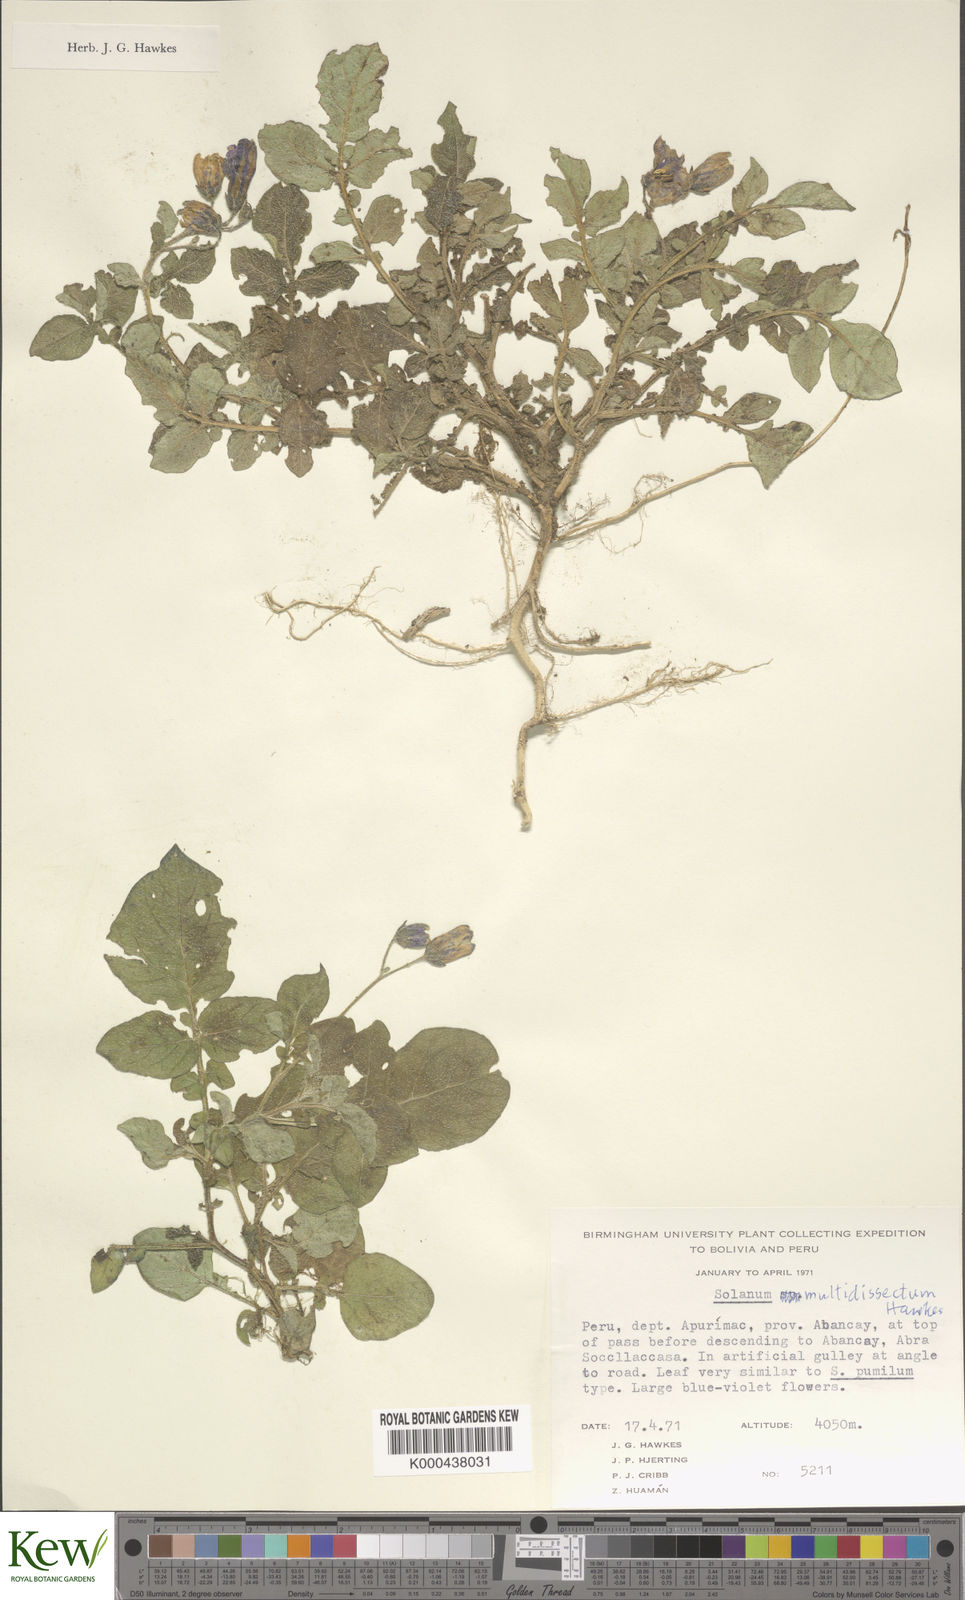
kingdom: Plantae
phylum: Tracheophyta
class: Magnoliopsida
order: Solanales
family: Solanaceae
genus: Solanum
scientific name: Solanum candolleanum
